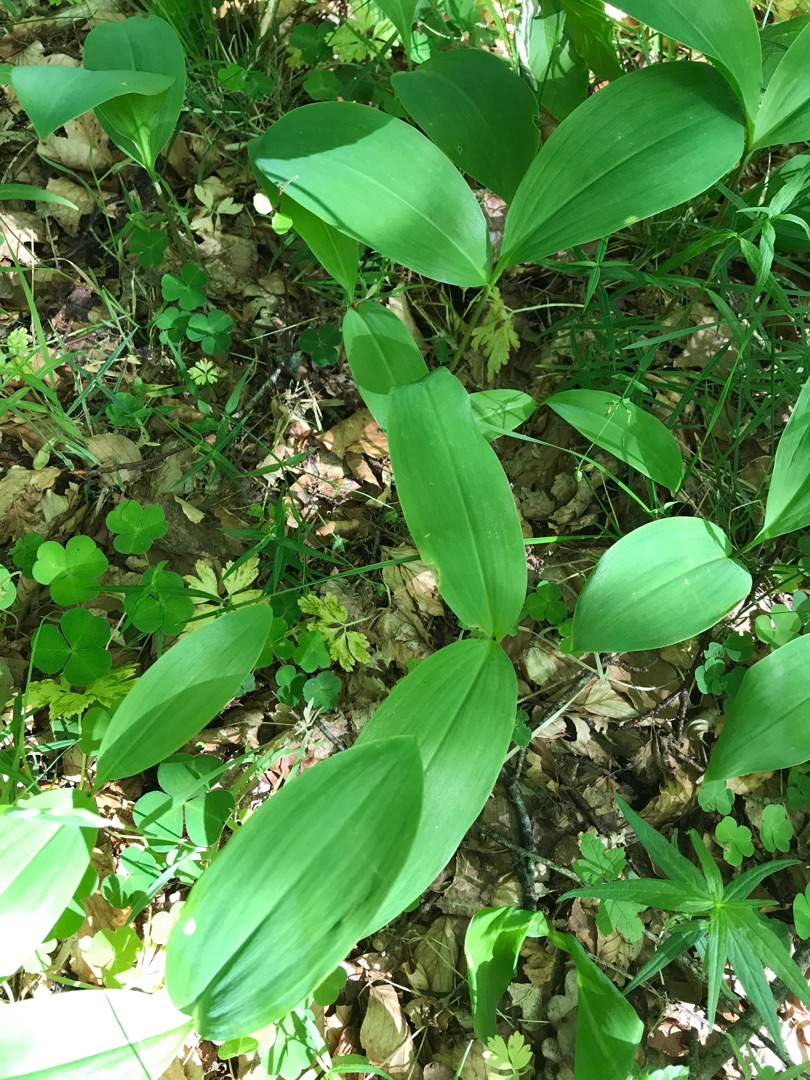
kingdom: Plantae
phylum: Tracheophyta
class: Liliopsida
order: Asparagales
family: Asparagaceae
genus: Convallaria
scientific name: Convallaria majalis
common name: Liljekonval
